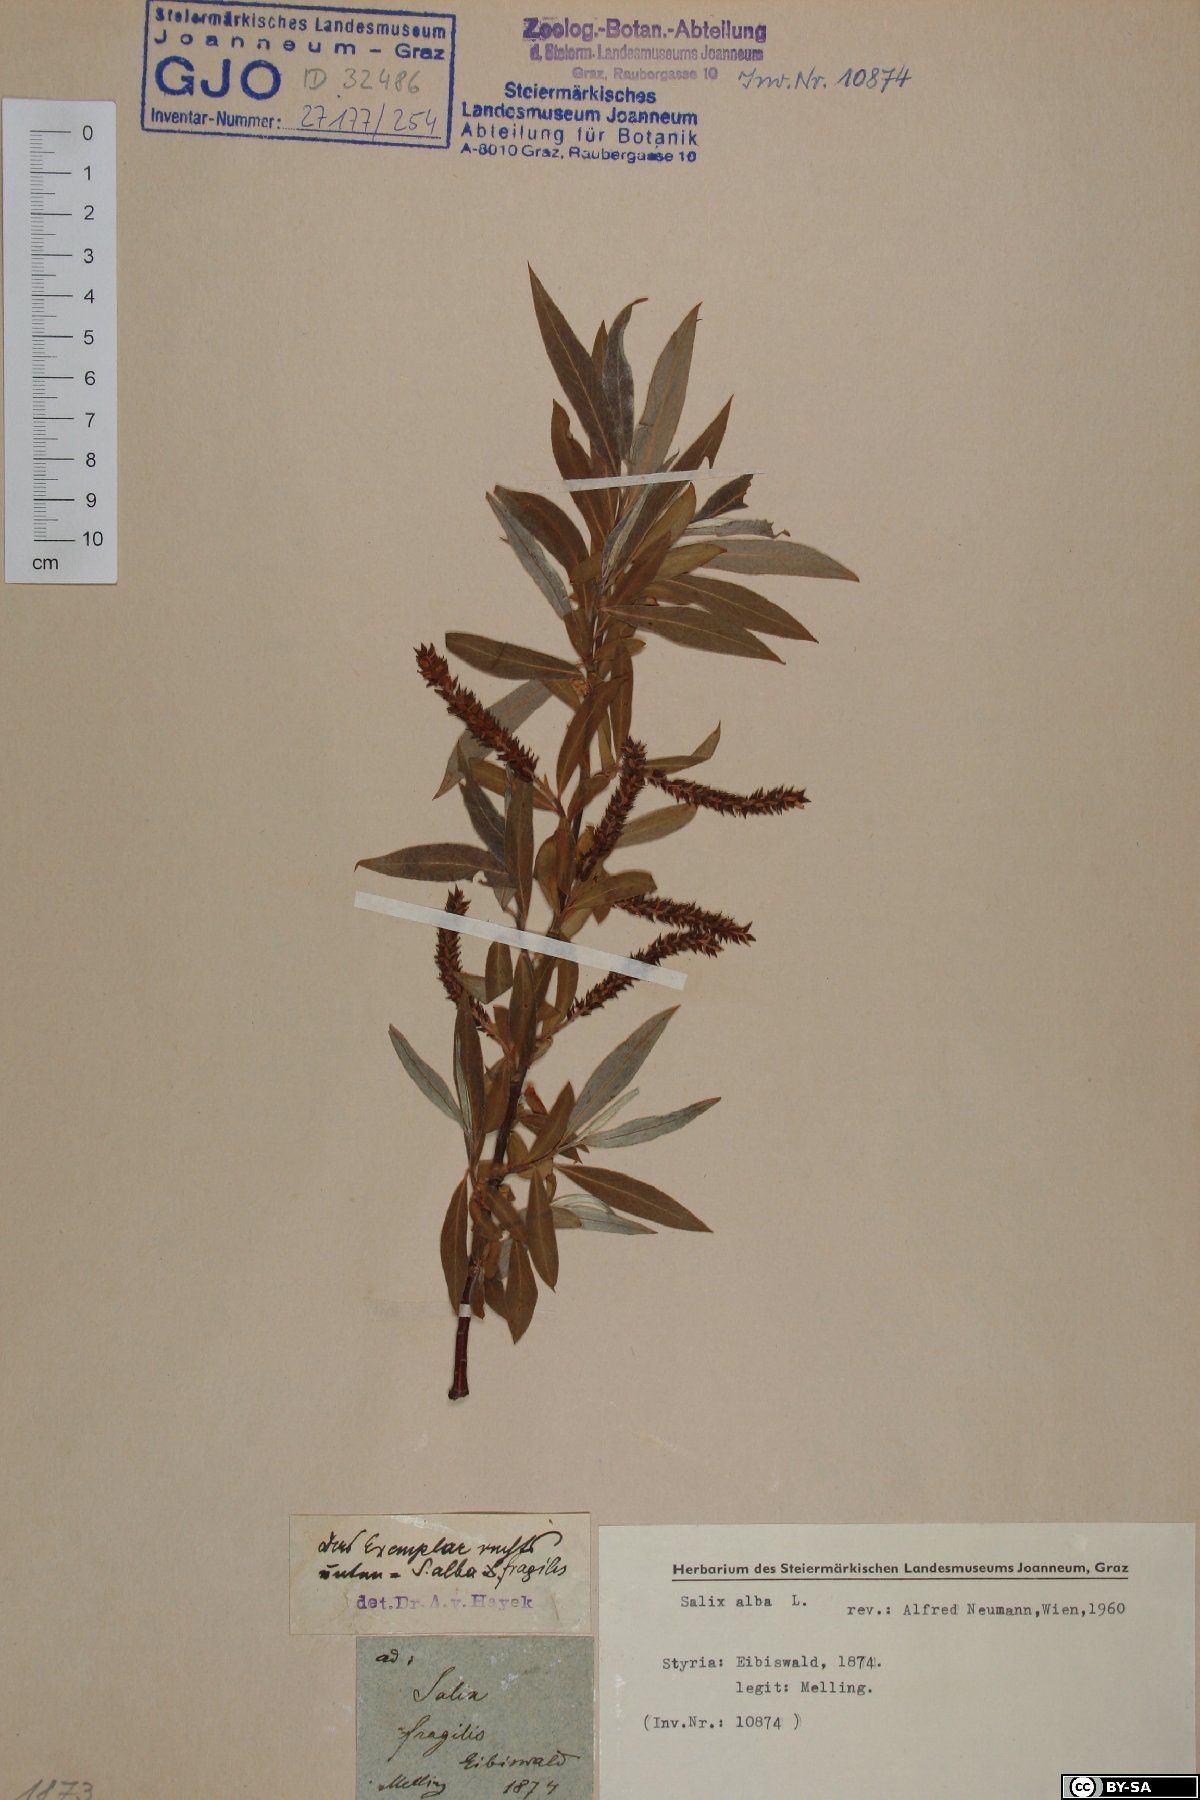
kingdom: Plantae
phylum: Tracheophyta
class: Magnoliopsida
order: Malpighiales
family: Salicaceae
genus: Salix
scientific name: Salix alba
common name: White willow
